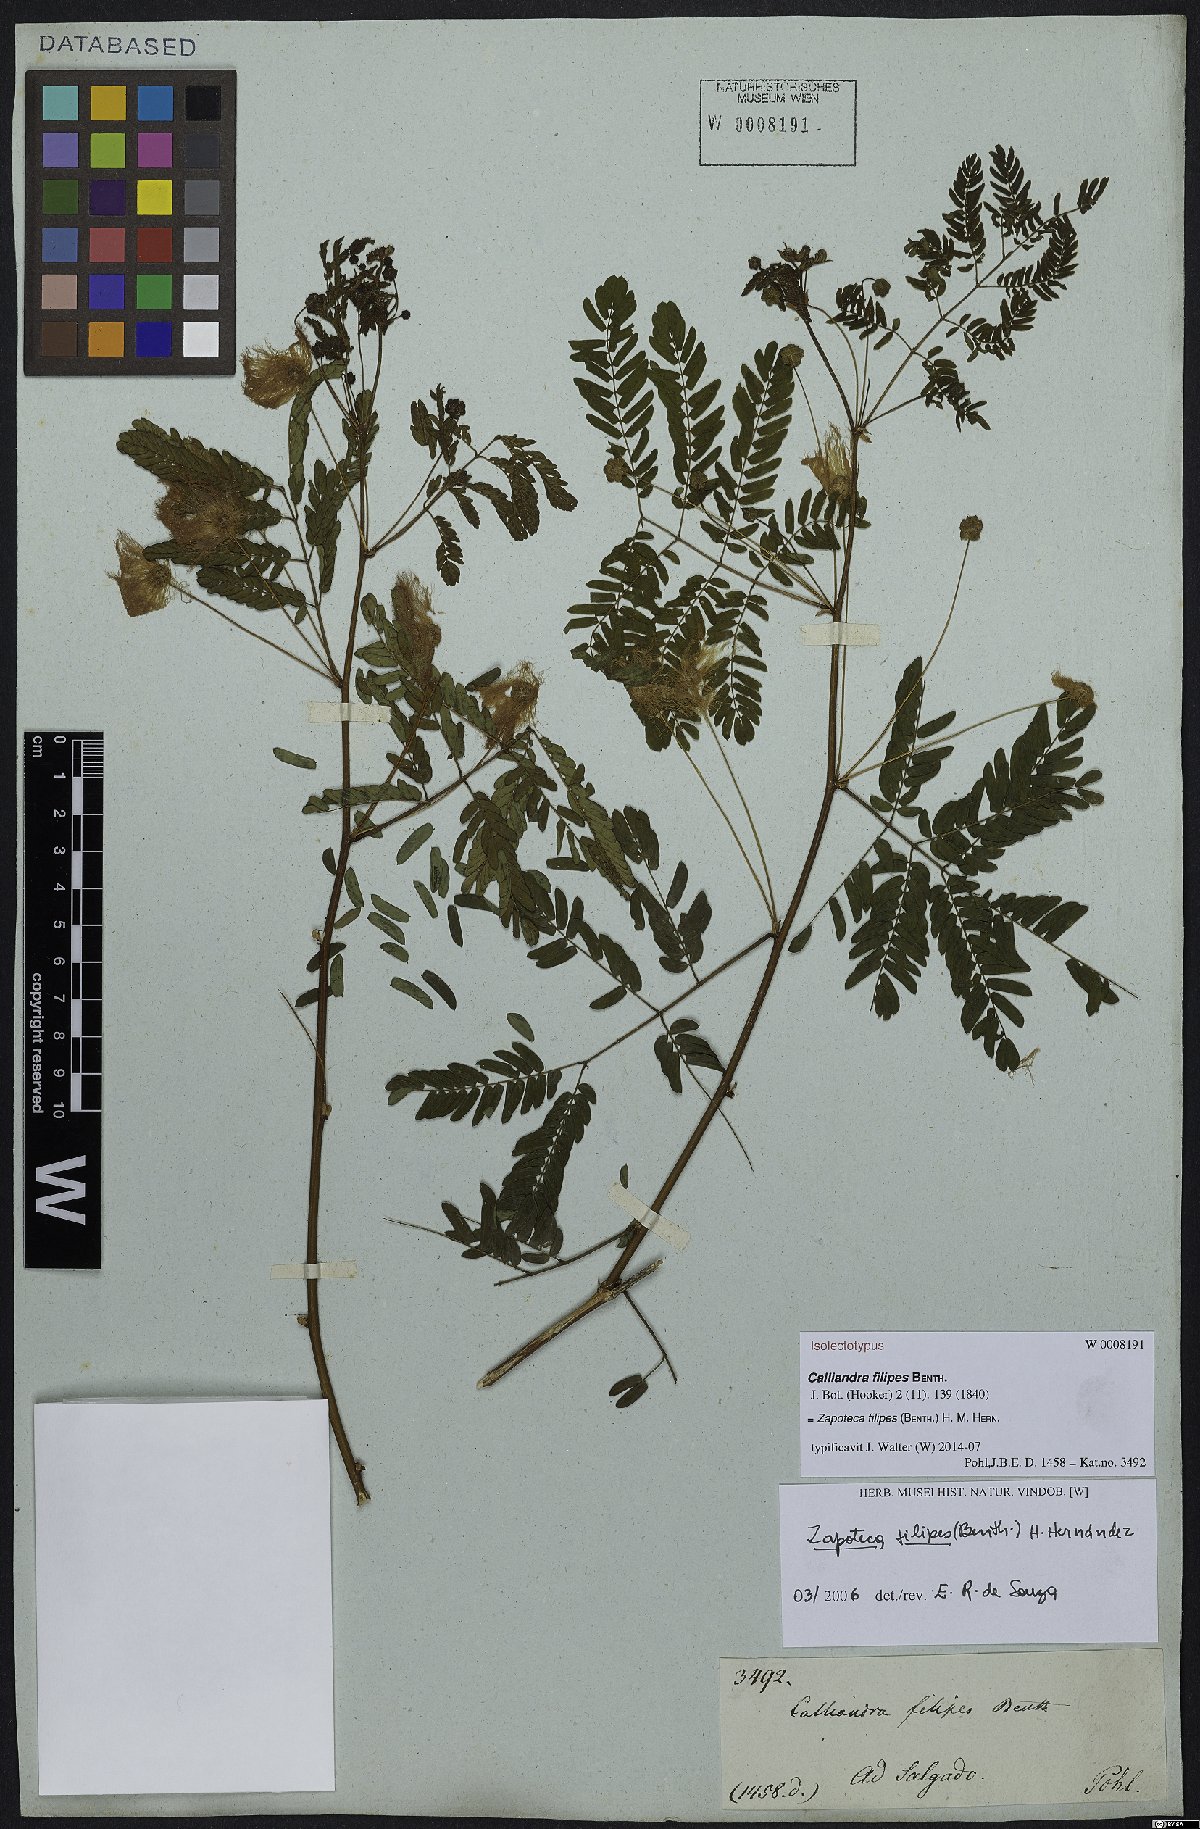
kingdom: Plantae
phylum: Tracheophyta
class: Magnoliopsida
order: Fabales
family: Fabaceae
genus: Zapoteca
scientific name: Zapoteca filipes
